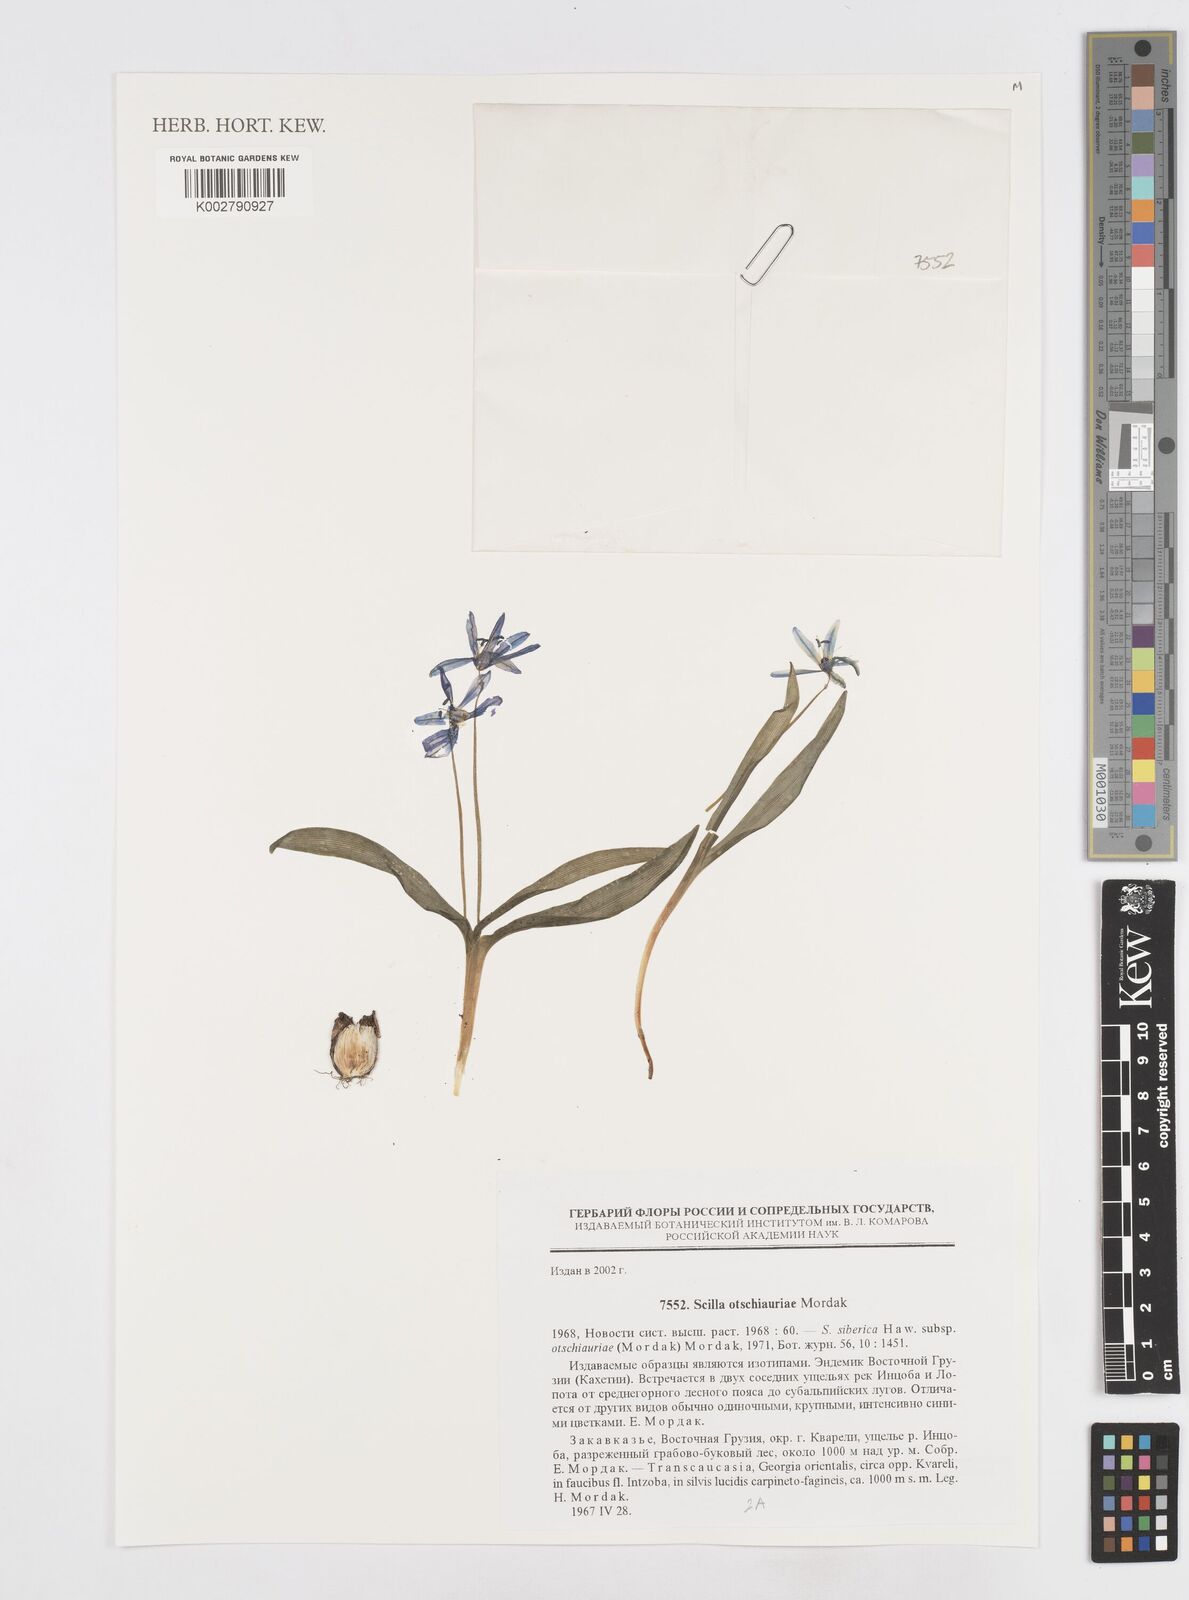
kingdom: Plantae
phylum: Tracheophyta
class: Liliopsida
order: Asparagales
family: Asparagaceae
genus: Scilla
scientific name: Scilla siberica
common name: Siberian squill
